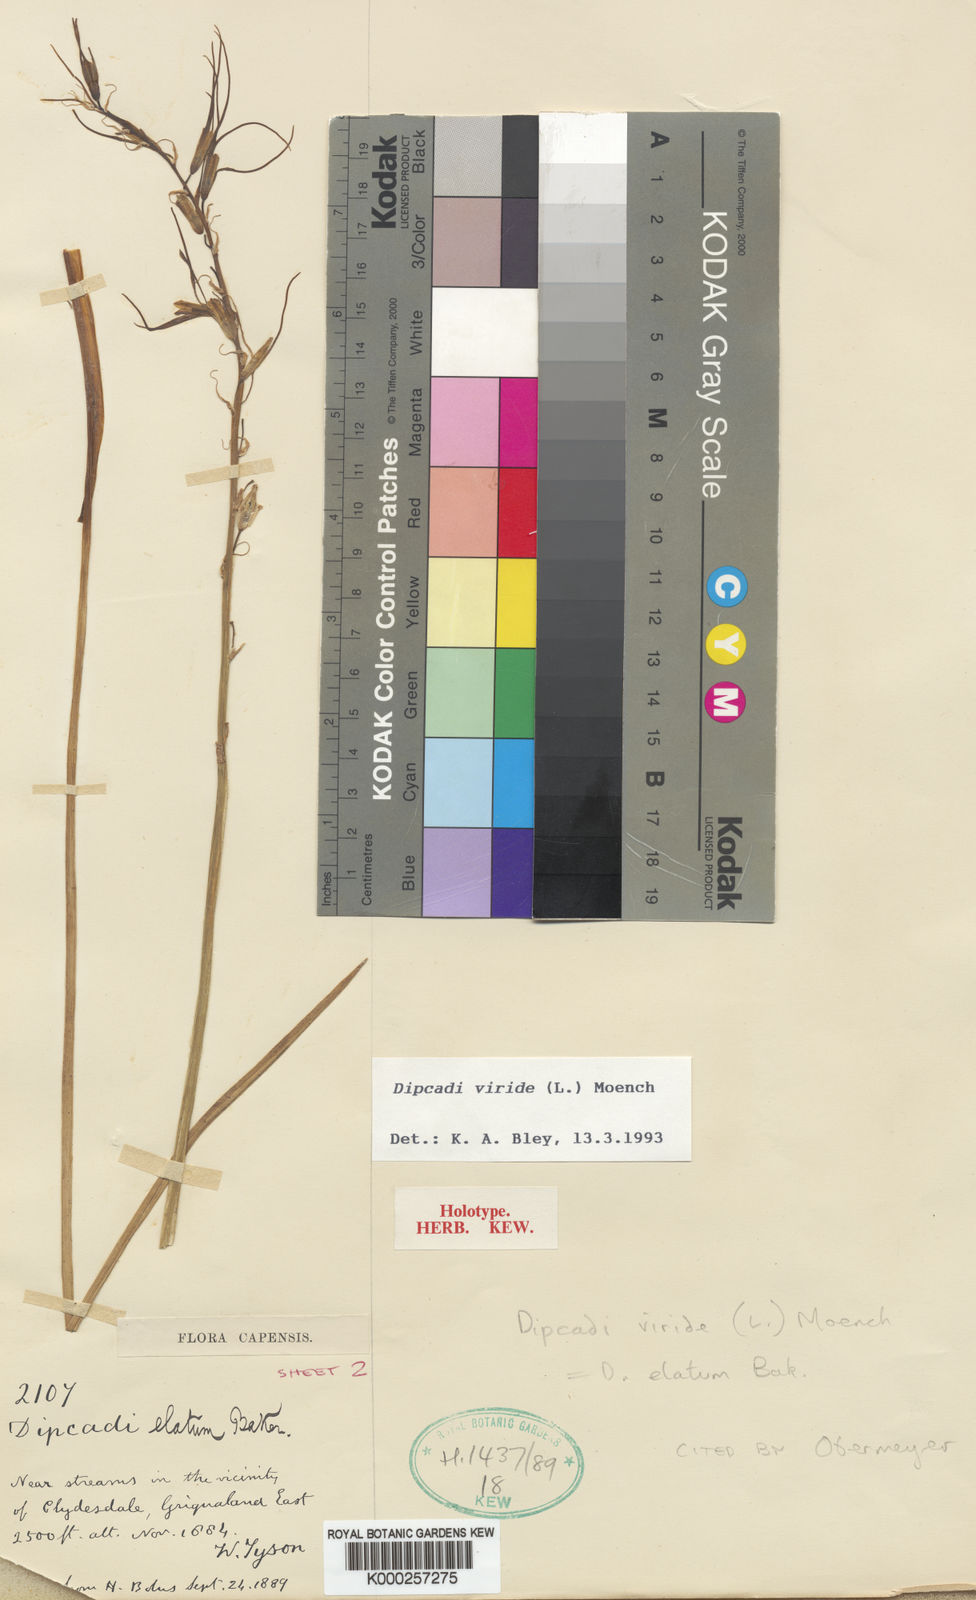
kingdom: Plantae
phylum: Tracheophyta
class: Liliopsida
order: Asparagales
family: Asparagaceae
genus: Dipcadi
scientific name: Dipcadi viride
